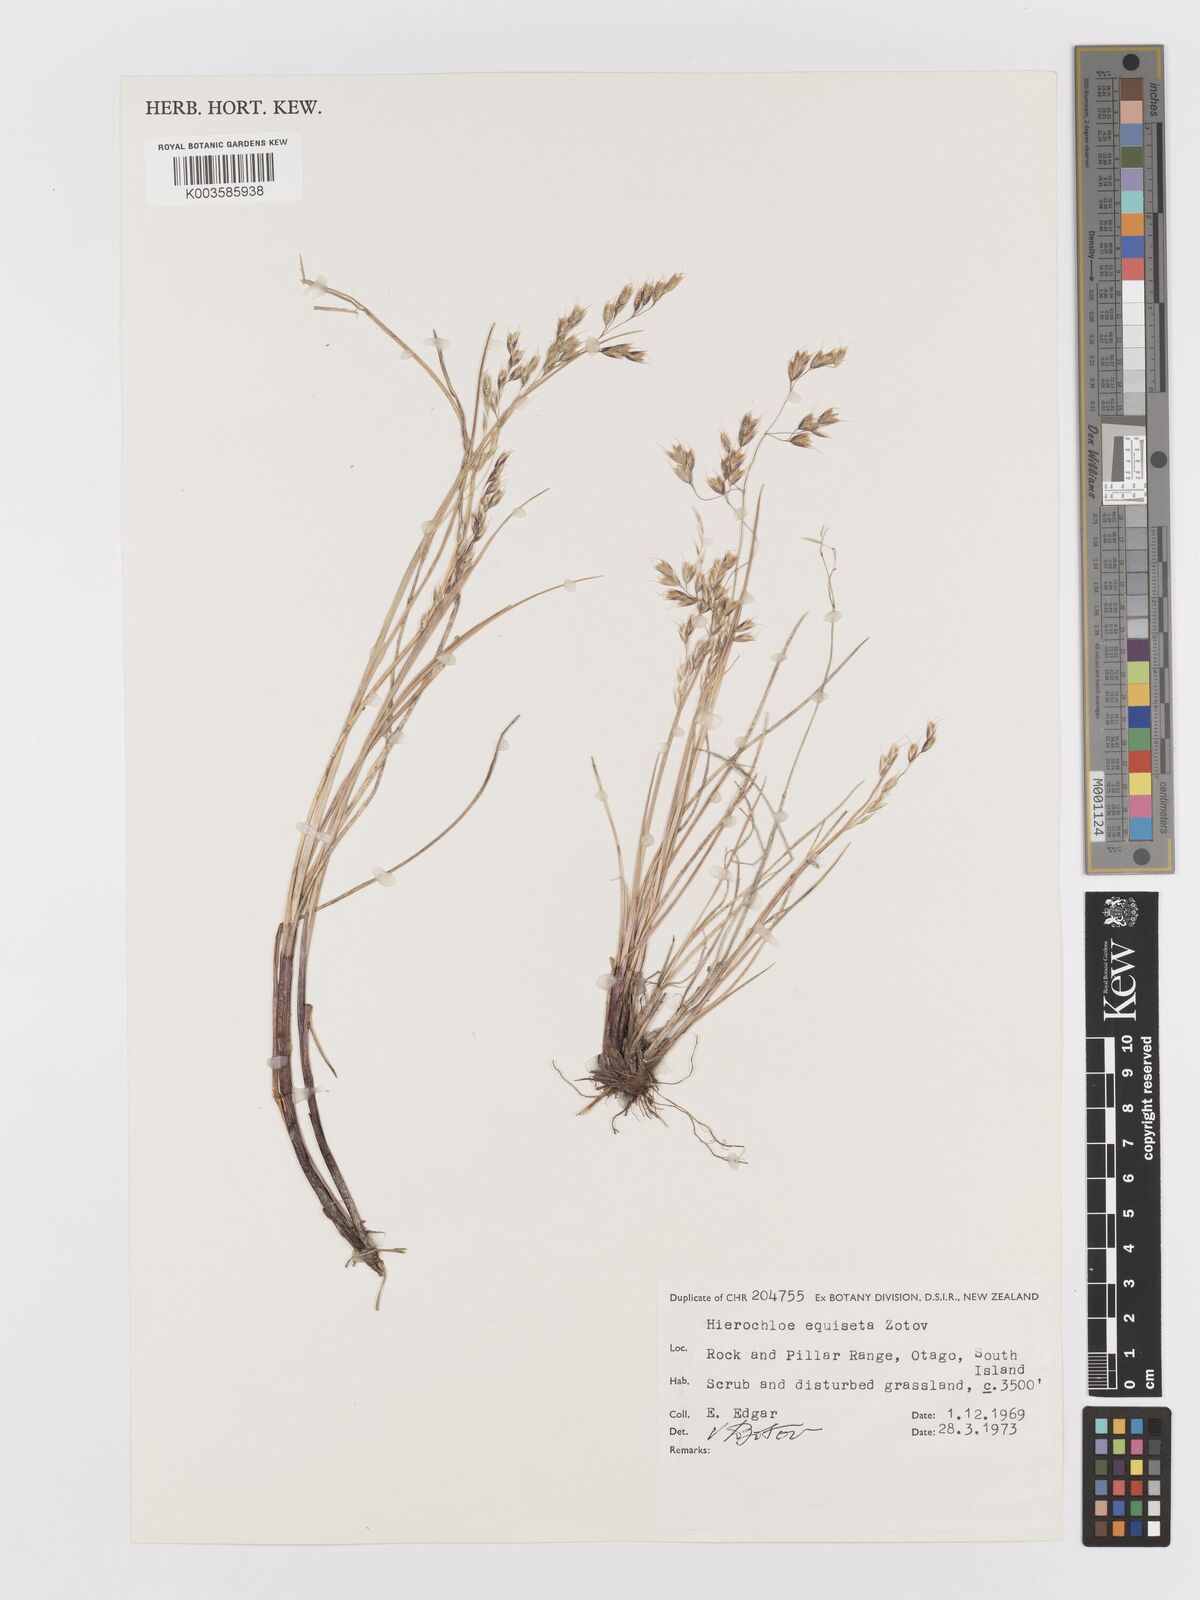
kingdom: Plantae
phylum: Tracheophyta
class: Liliopsida
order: Poales
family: Poaceae
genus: Anthoxanthum
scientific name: Anthoxanthum equisetum
